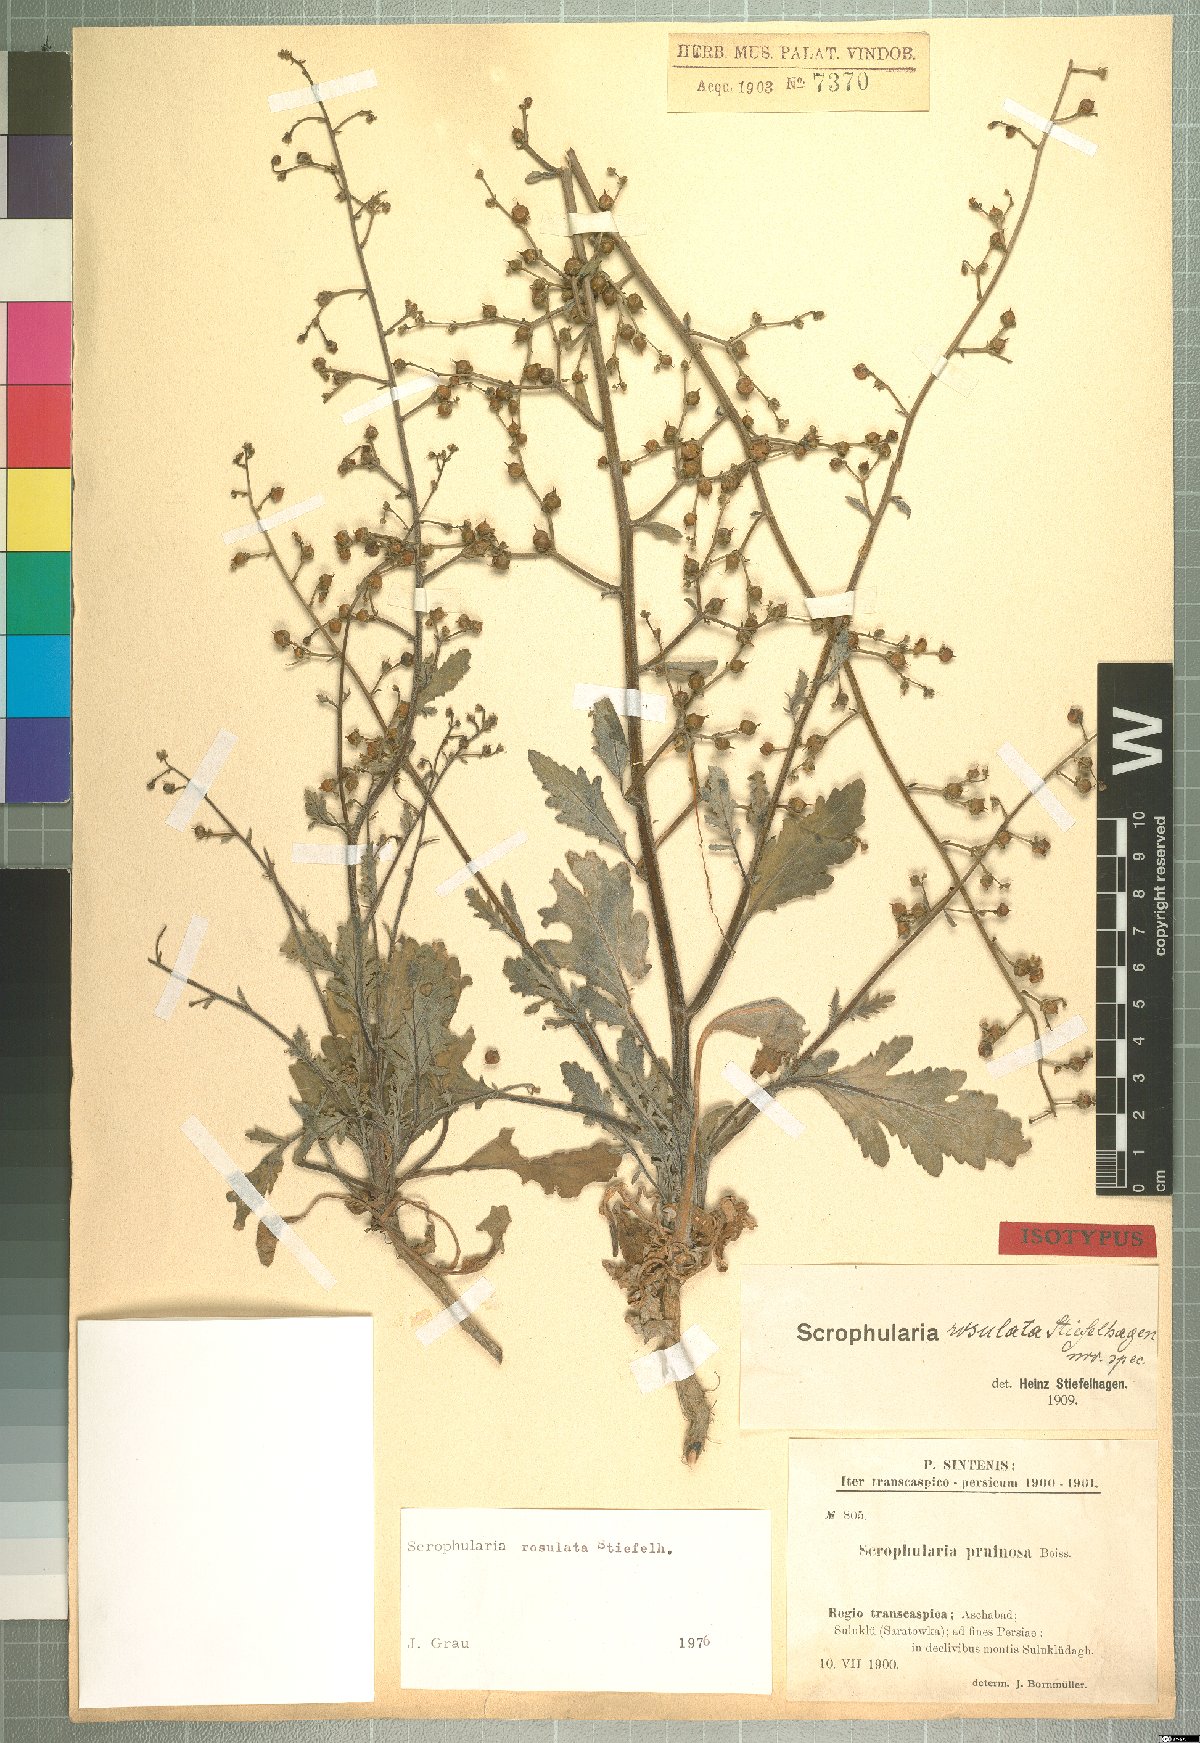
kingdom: Plantae
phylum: Tracheophyta
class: Magnoliopsida
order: Lamiales
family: Scrophulariaceae
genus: Scrophularia
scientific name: Scrophularia rosulata
